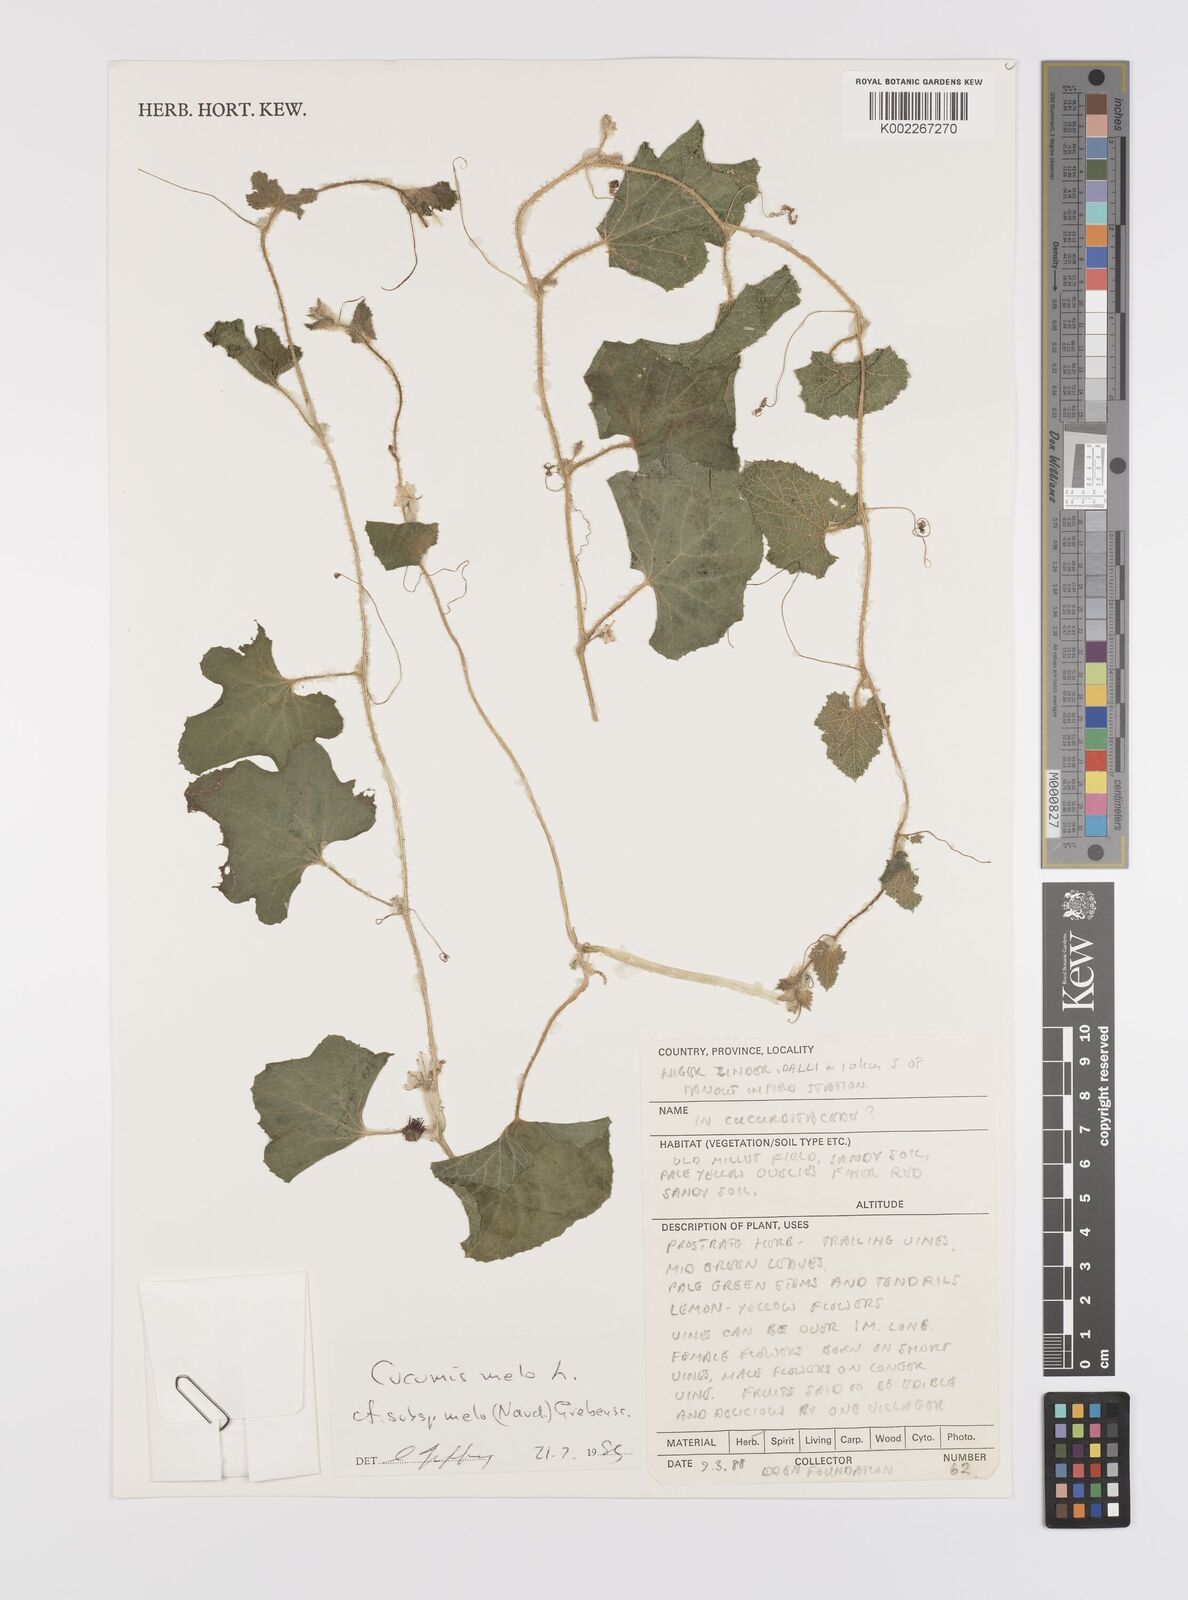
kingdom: Plantae
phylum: Tracheophyta
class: Magnoliopsida
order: Cucurbitales
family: Cucurbitaceae
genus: Cucumis
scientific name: Cucumis melo
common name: Melon
